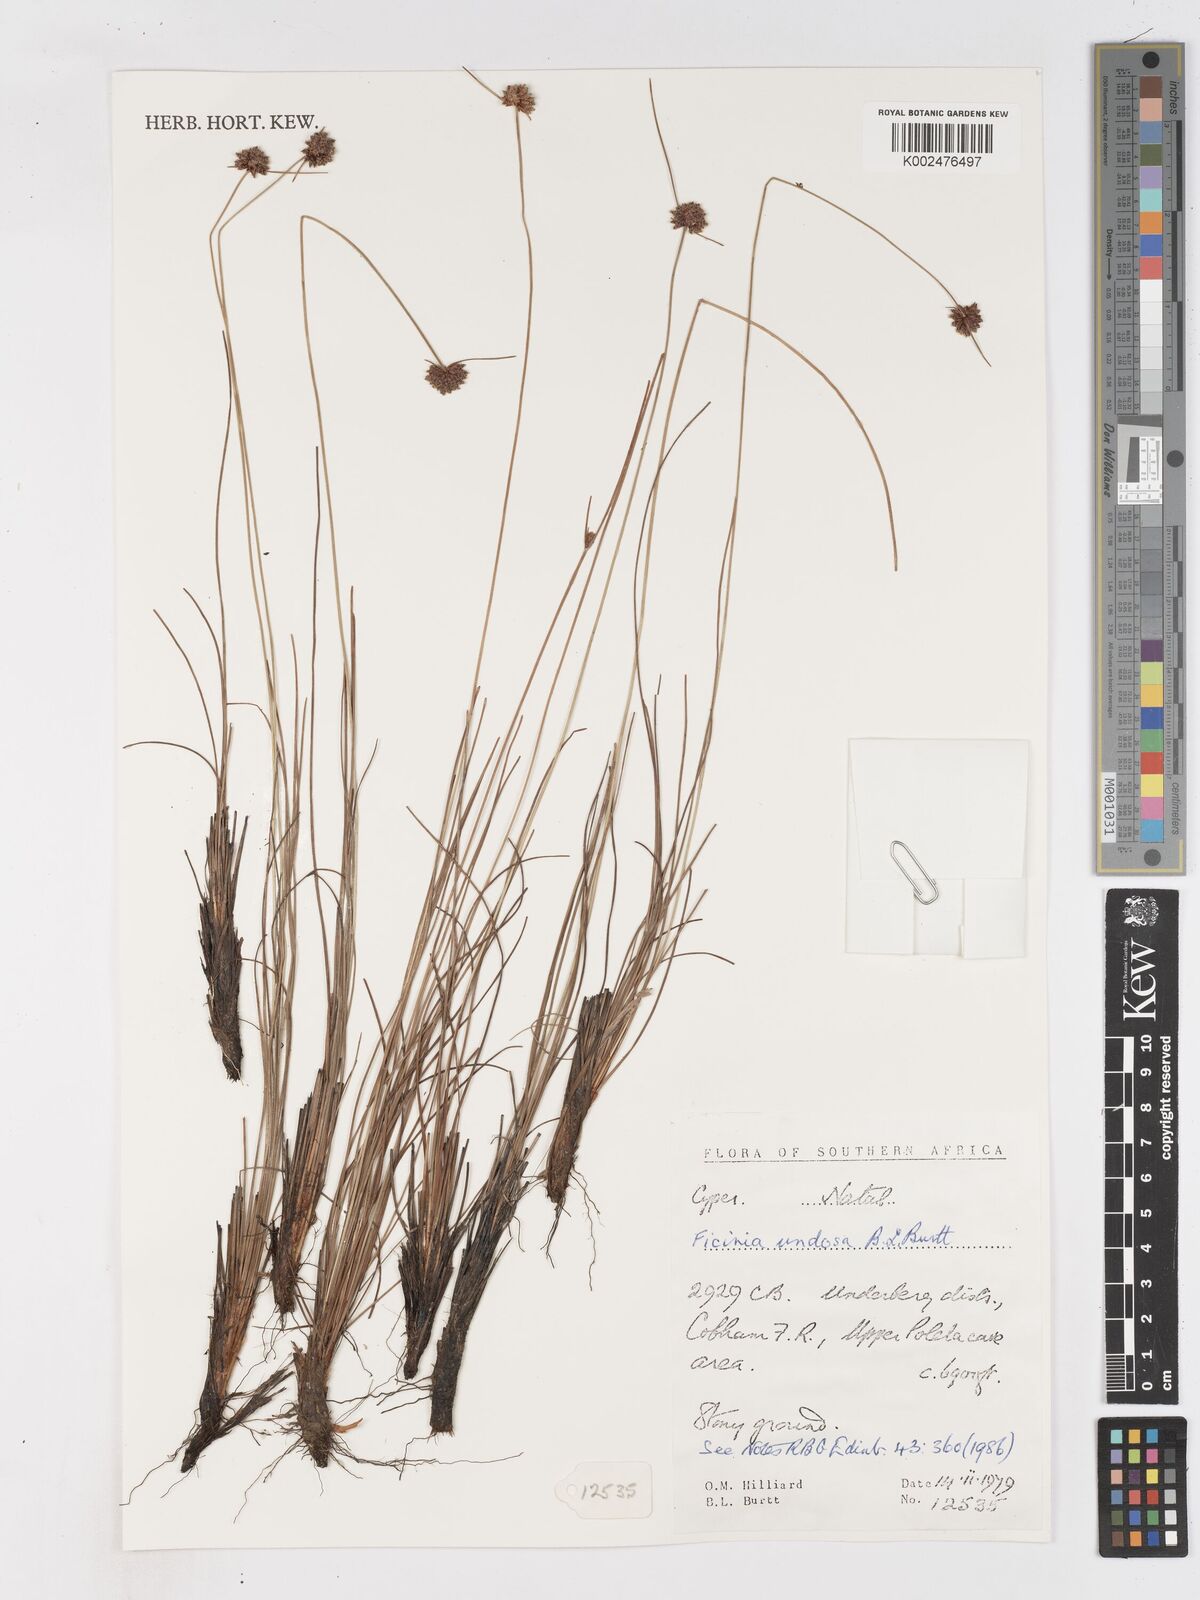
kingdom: Plantae
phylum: Tracheophyta
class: Liliopsida
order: Poales
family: Cyperaceae
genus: Ficinia
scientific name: Ficinia undosa
